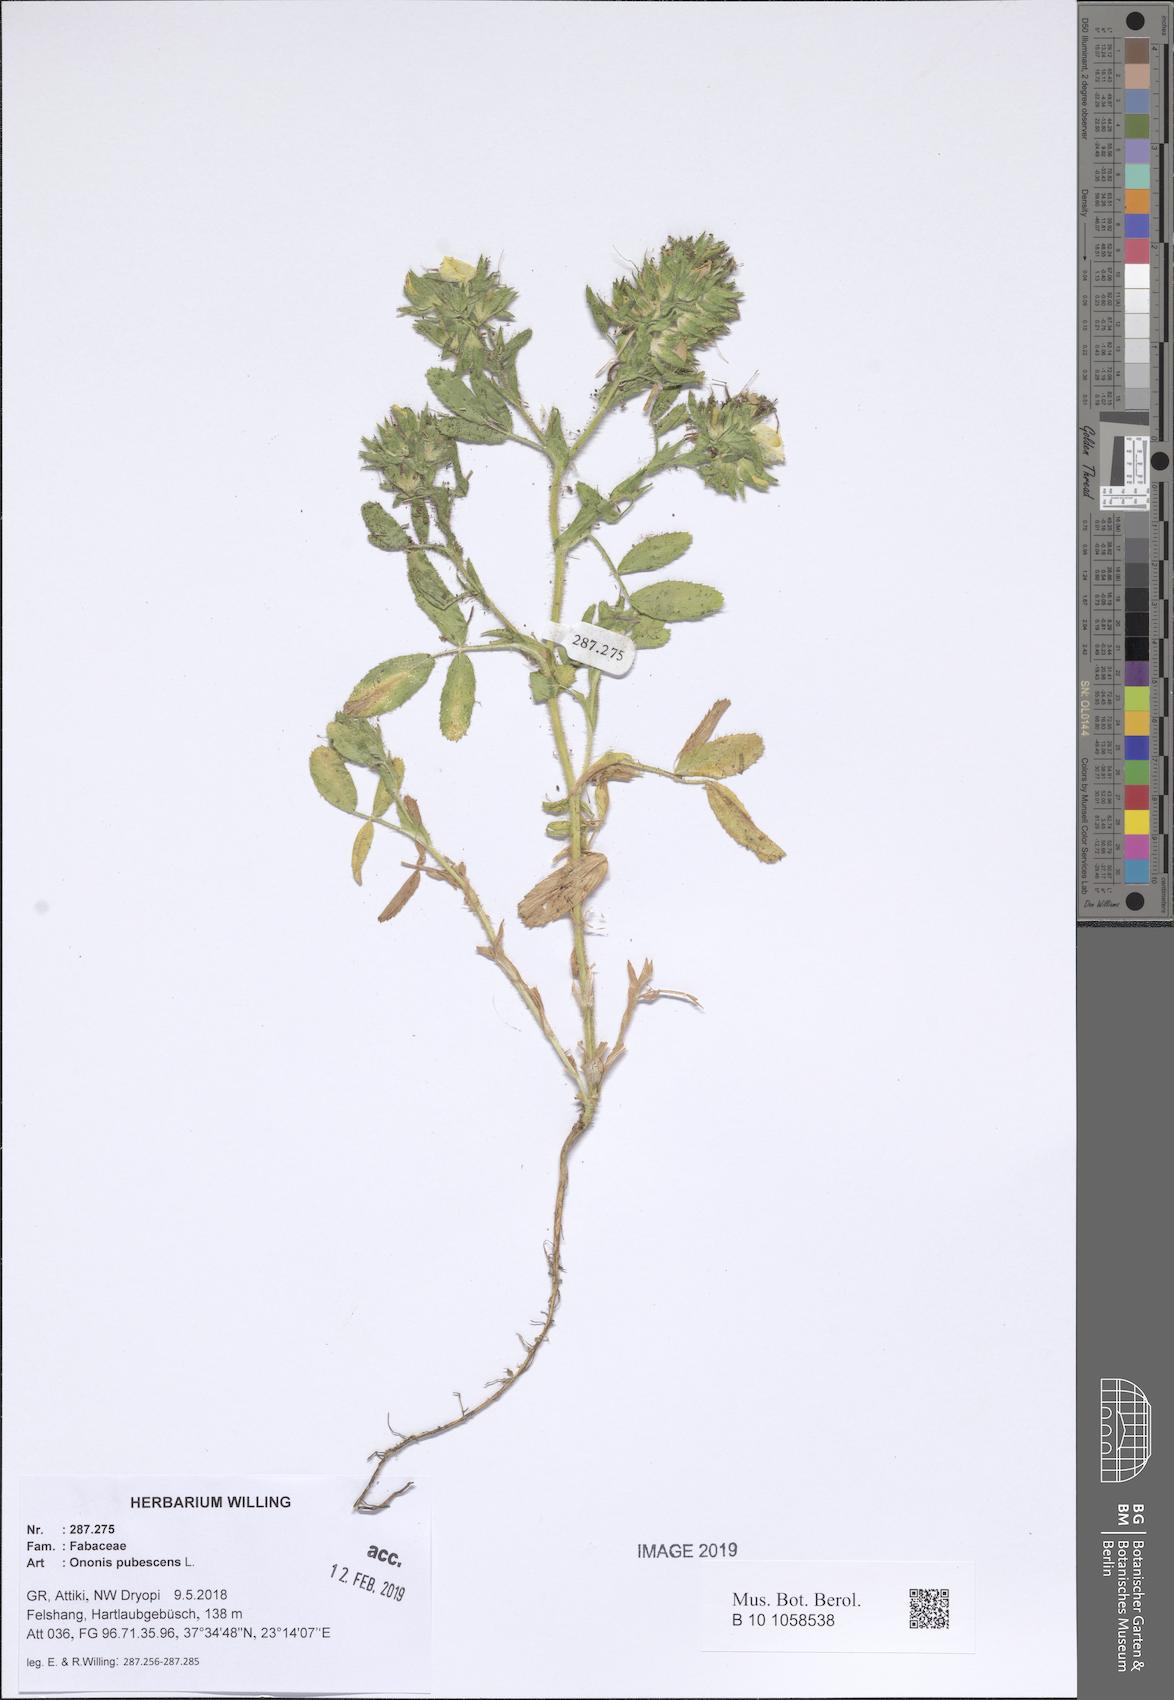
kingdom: Plantae
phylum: Tracheophyta
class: Magnoliopsida
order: Fabales
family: Fabaceae
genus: Ononis
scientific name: Ononis pubescens
